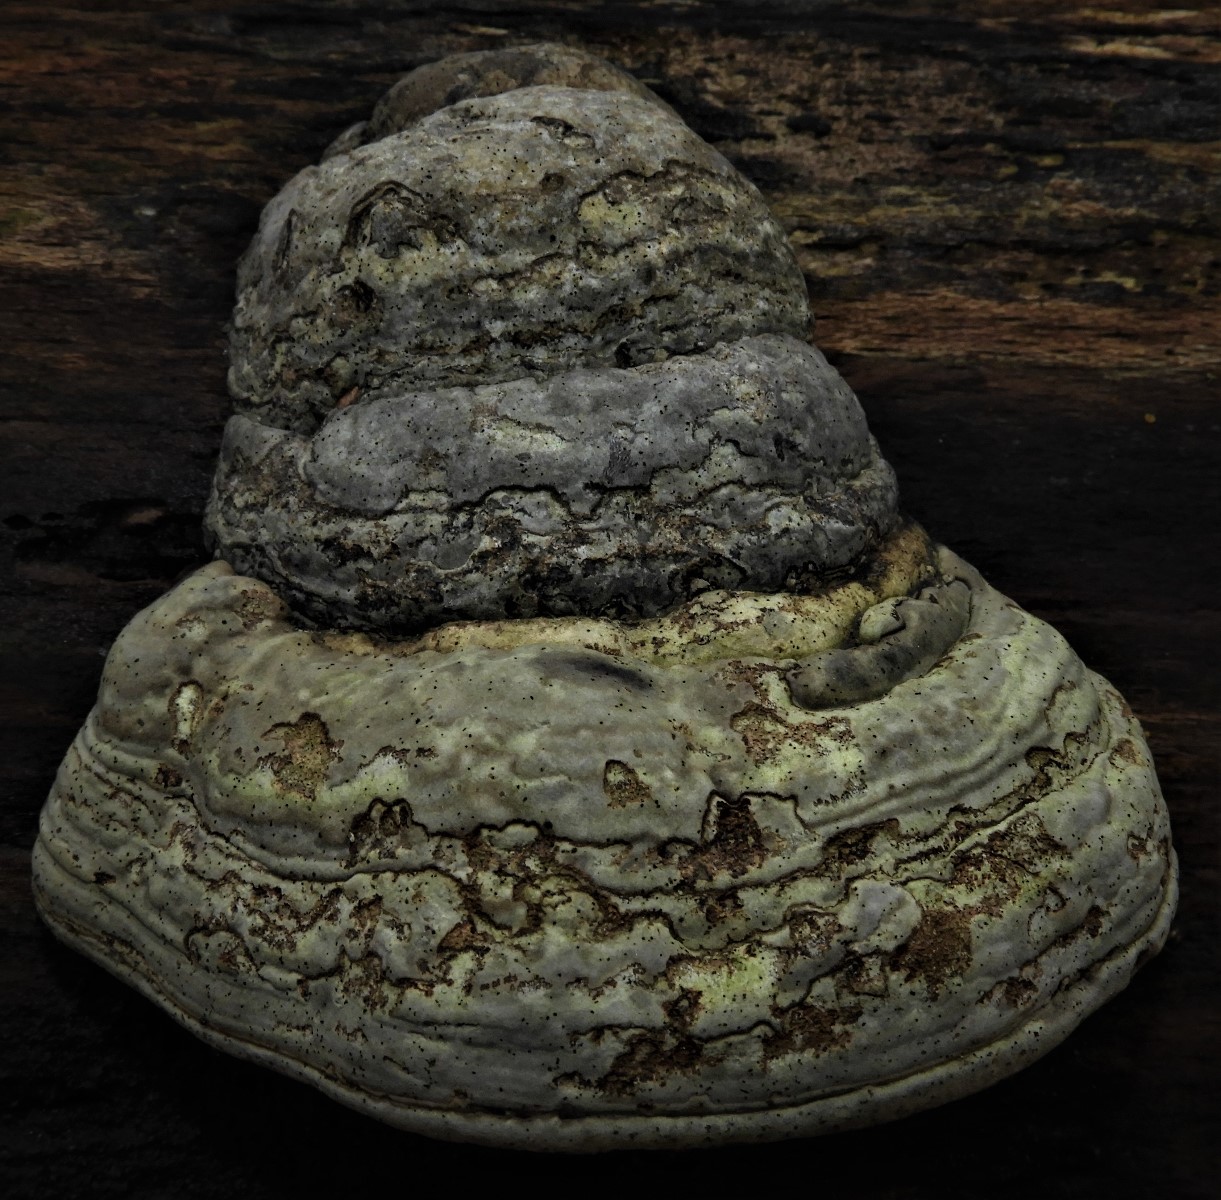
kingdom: Fungi
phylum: Basidiomycota
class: Agaricomycetes
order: Polyporales
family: Polyporaceae
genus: Fomes
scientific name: Fomes fomentarius
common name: tøndersvamp
